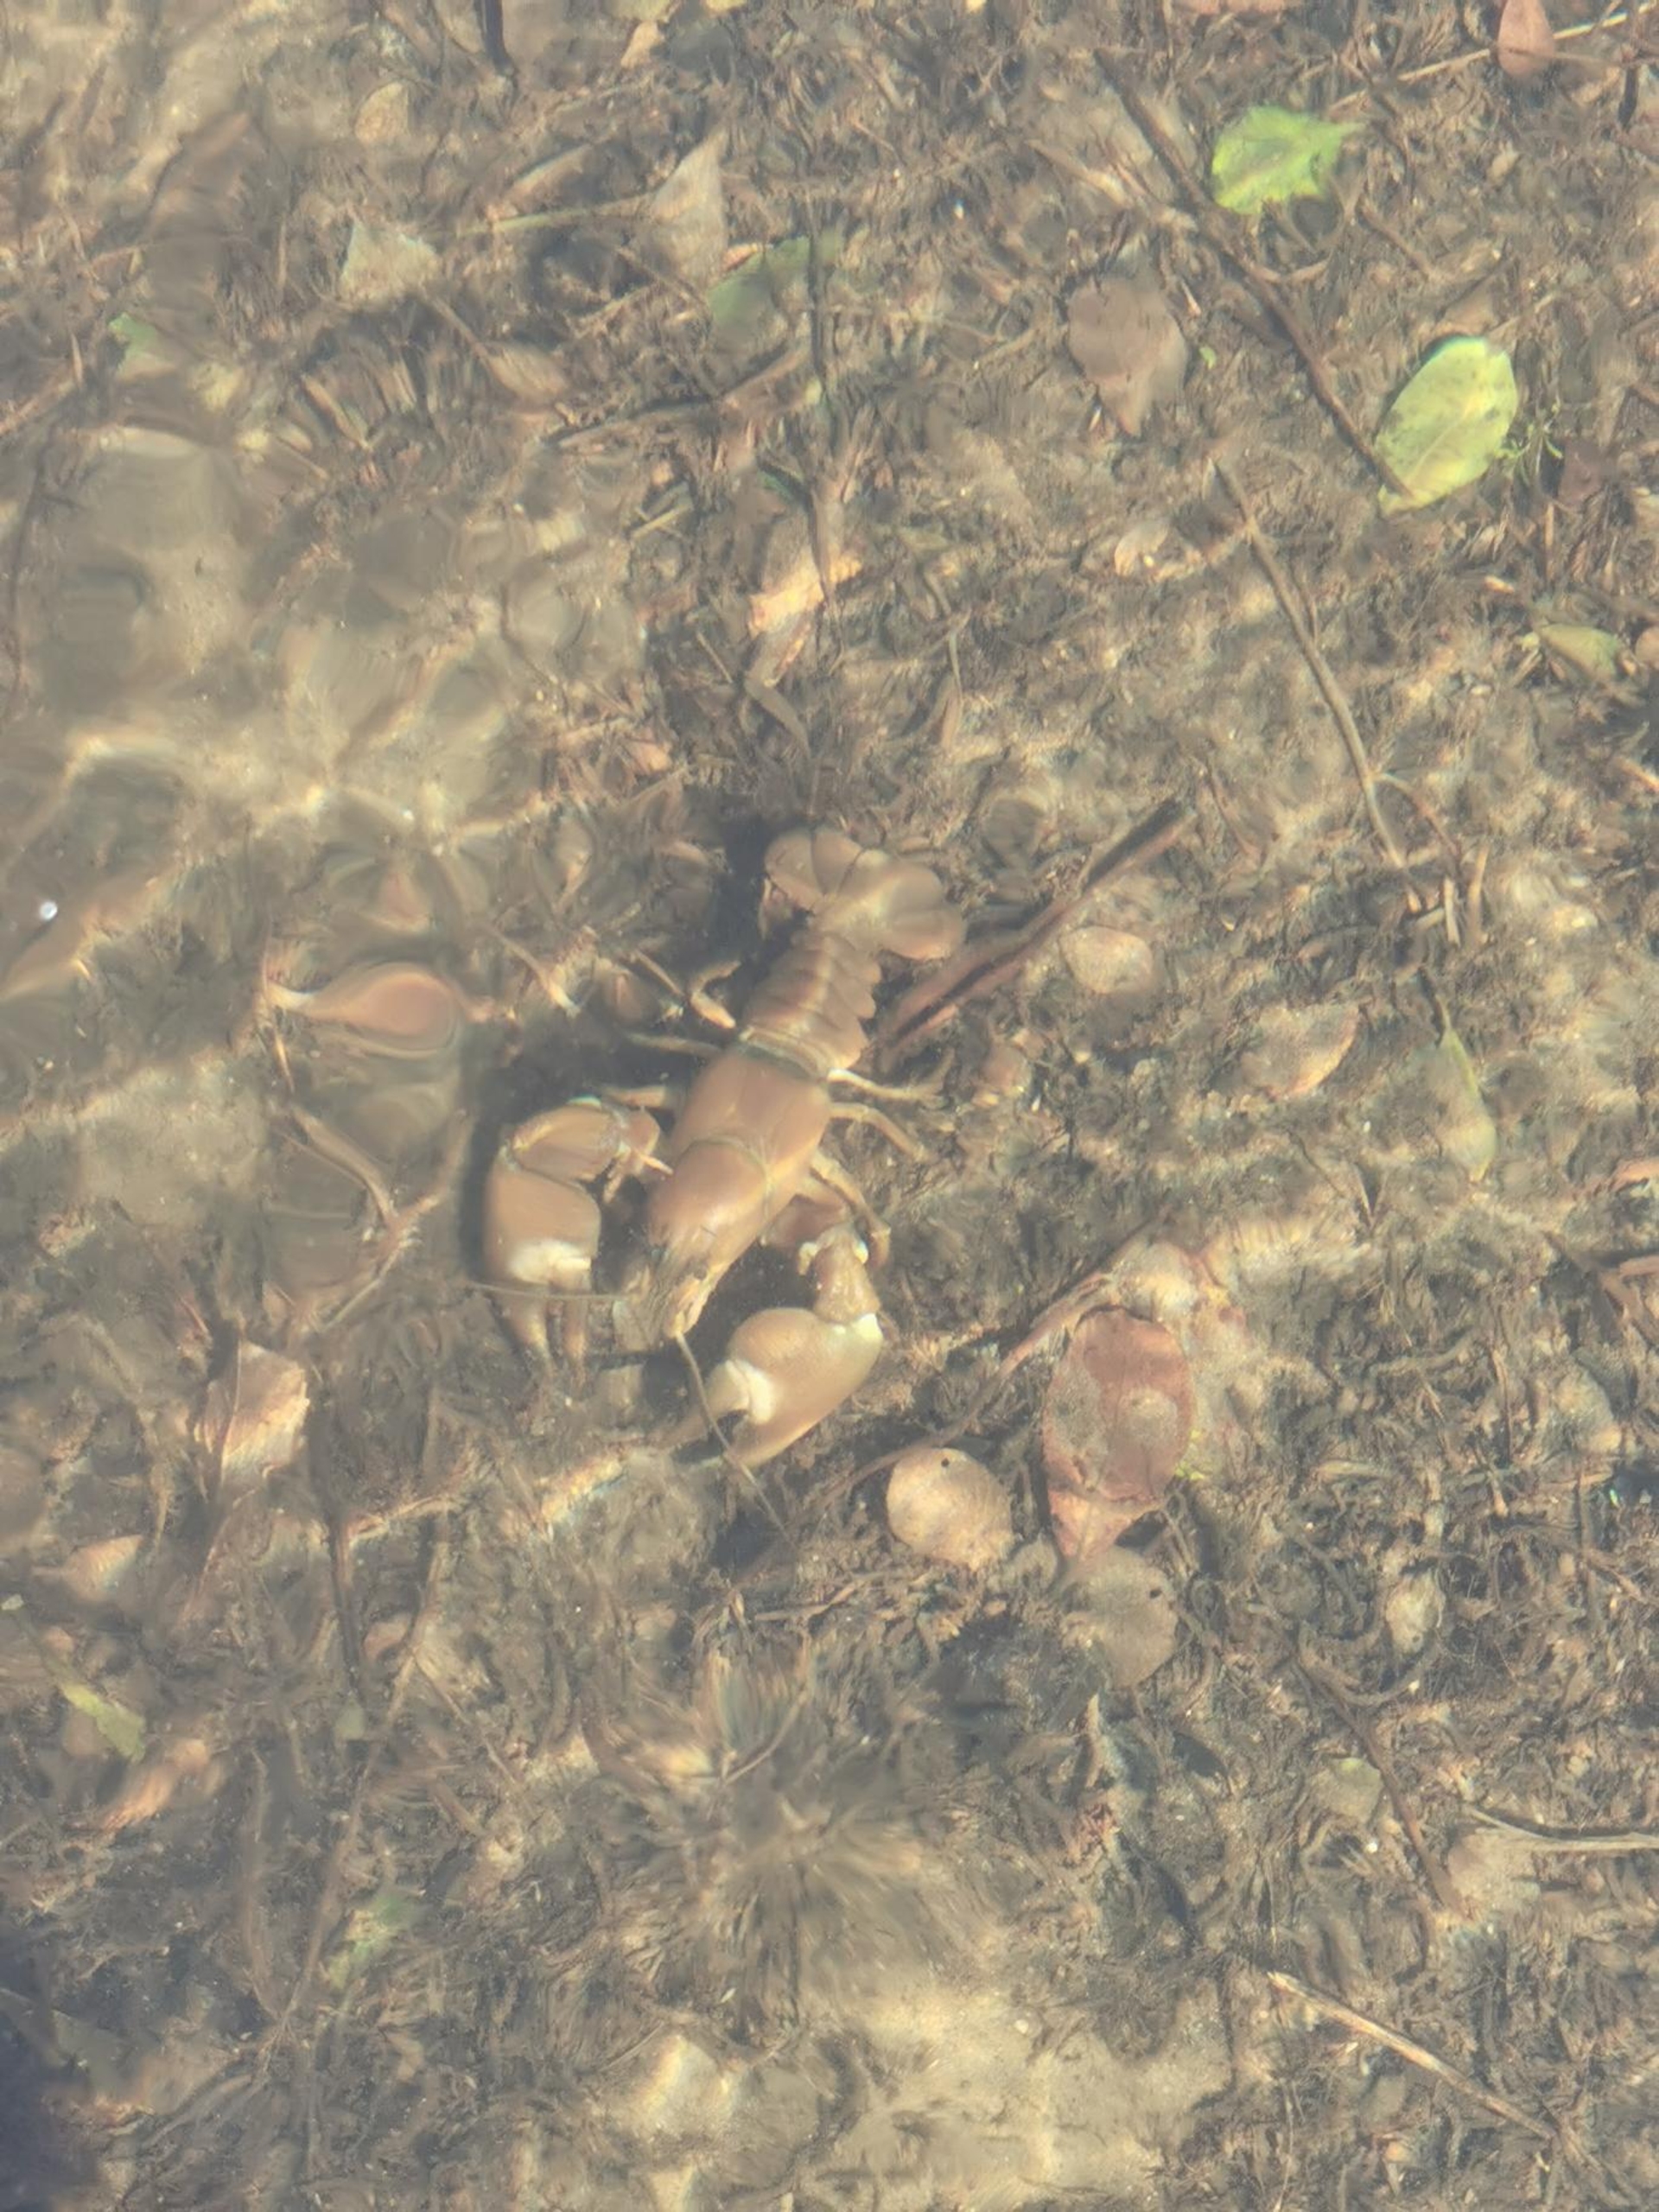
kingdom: Animalia
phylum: Arthropoda
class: Malacostraca
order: Decapoda
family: Astacidae
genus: Pacifastacus
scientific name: Pacifastacus leniusculus
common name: Signalkrebs
